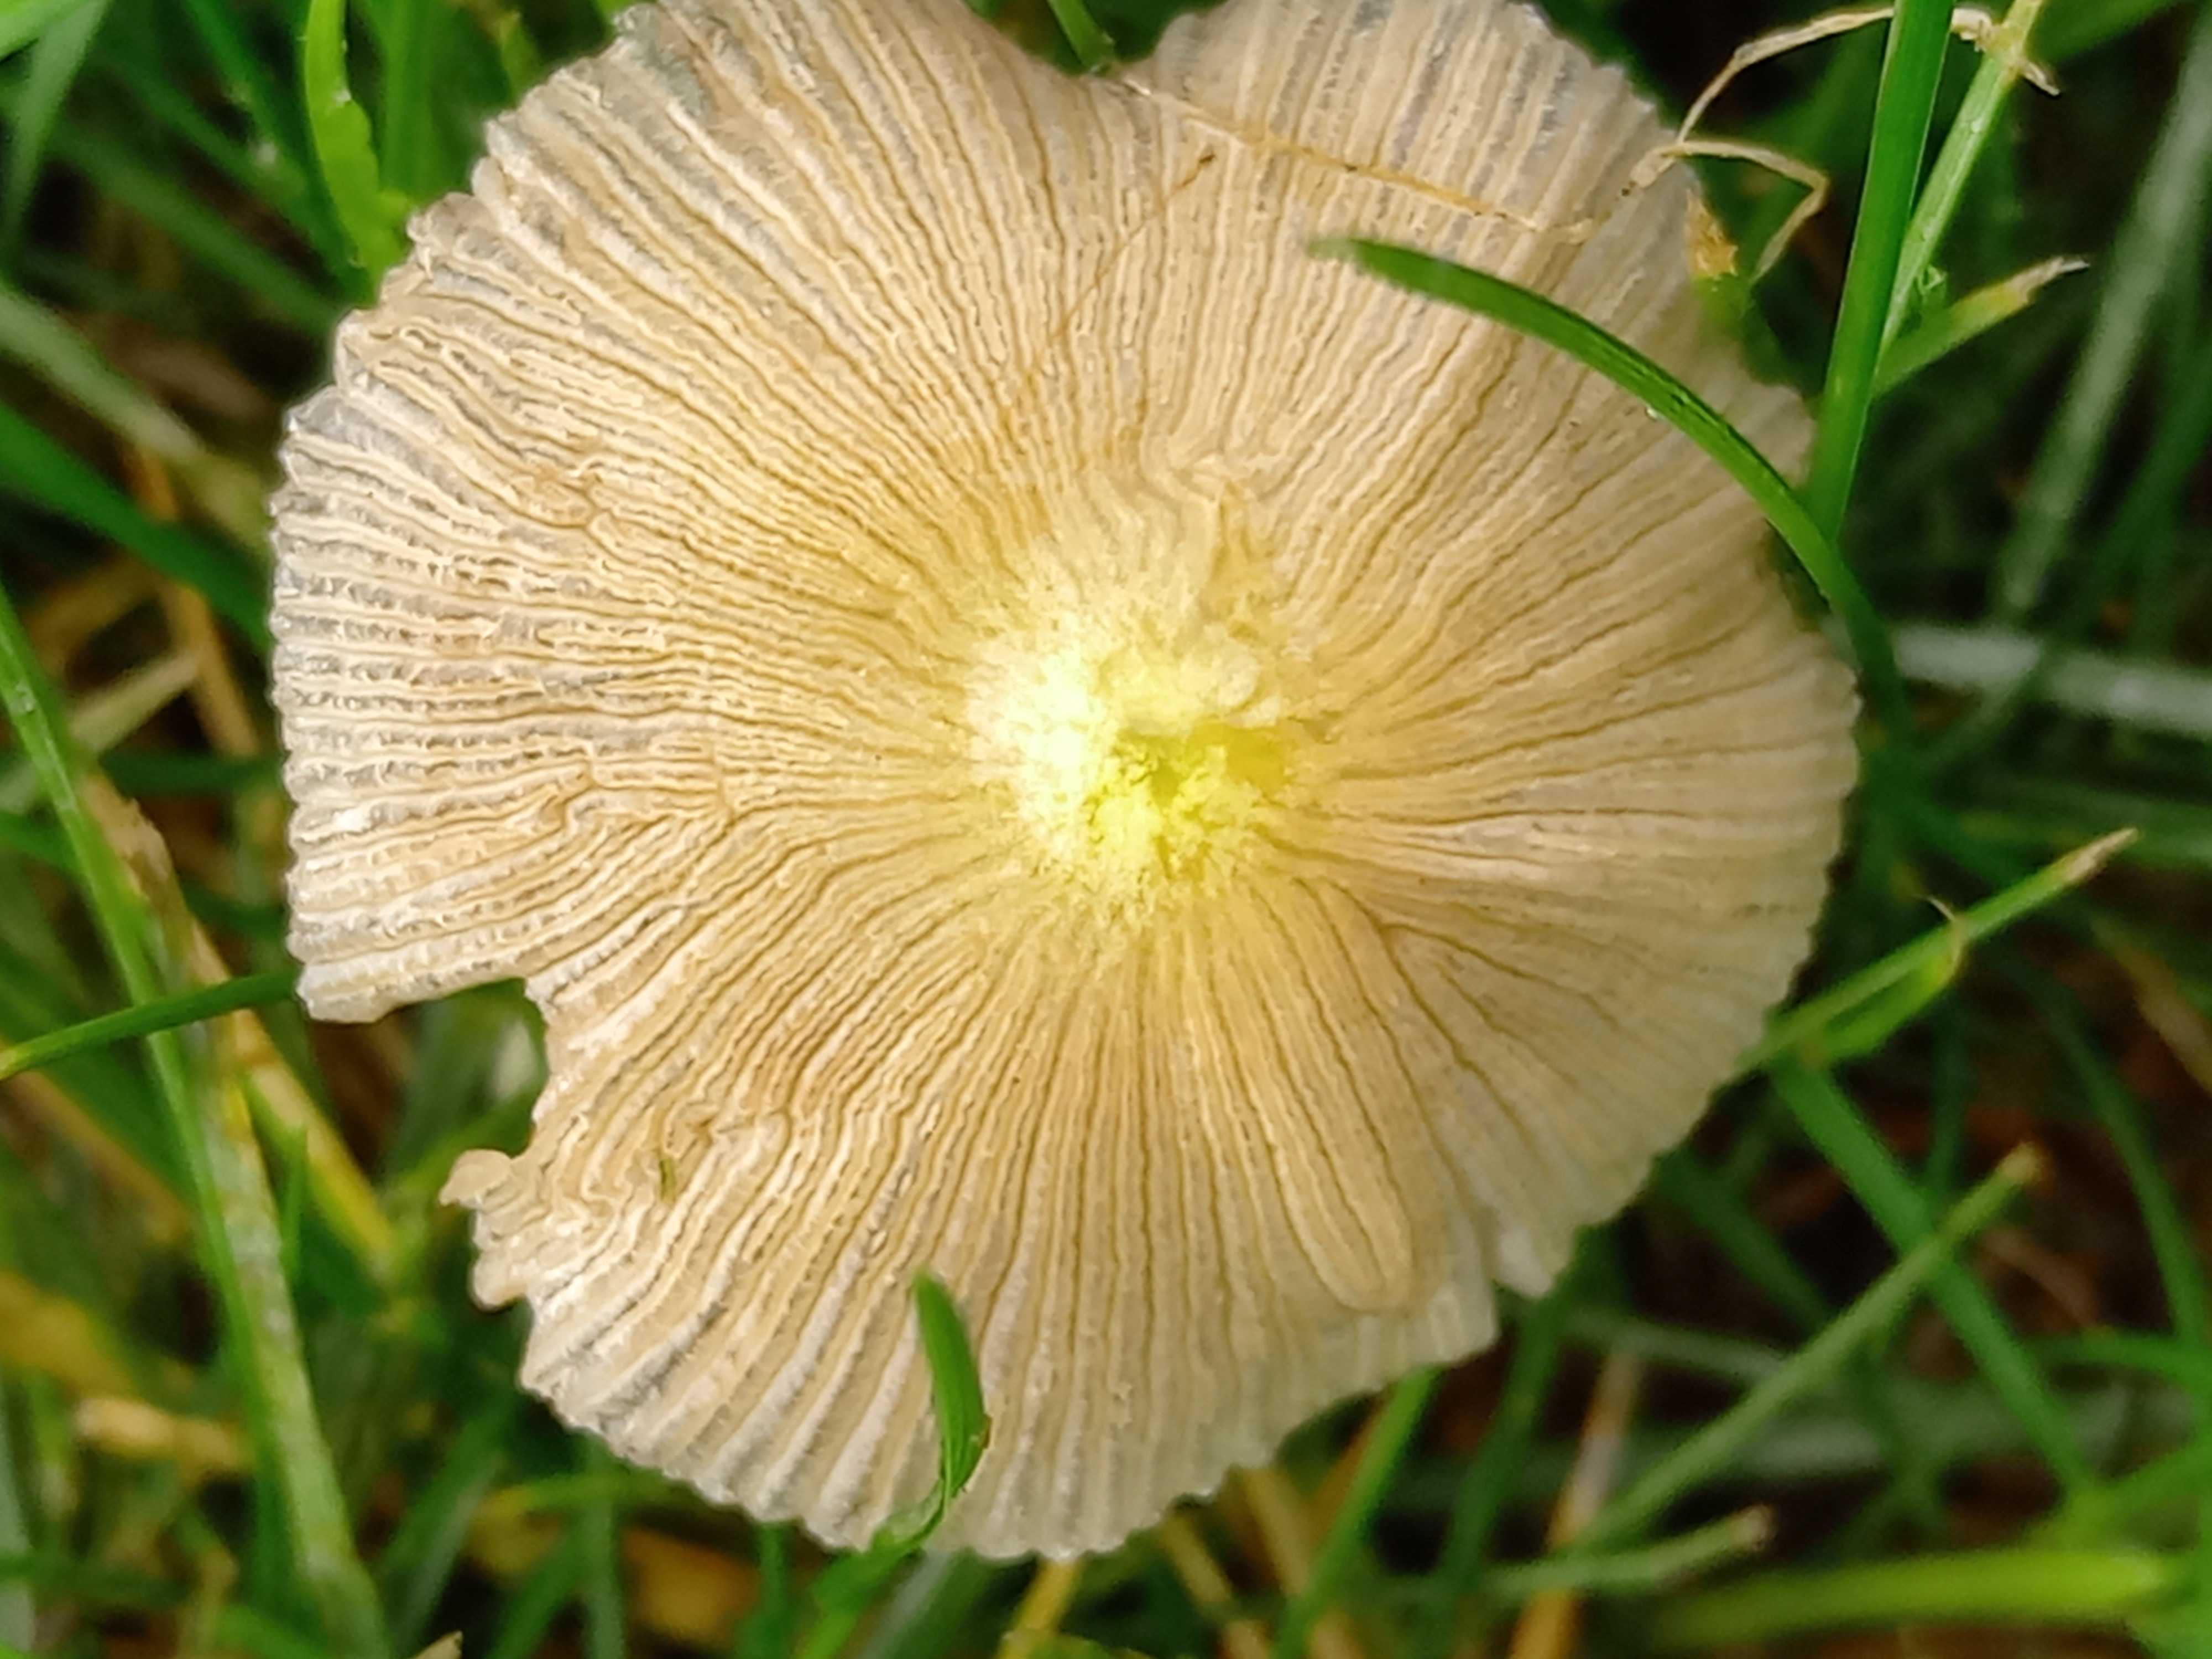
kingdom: Fungi
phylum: Basidiomycota
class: Agaricomycetes
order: Agaricales
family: Bolbitiaceae
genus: Bolbitius
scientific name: Bolbitius titubans
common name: almindelig gulhat
